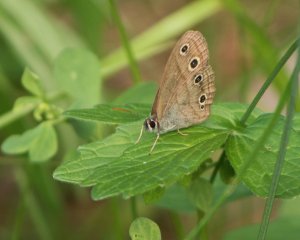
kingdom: Animalia
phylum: Arthropoda
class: Insecta
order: Lepidoptera
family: Nymphalidae
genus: Euptychia
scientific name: Euptychia cymela
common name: Little Wood Satyr
